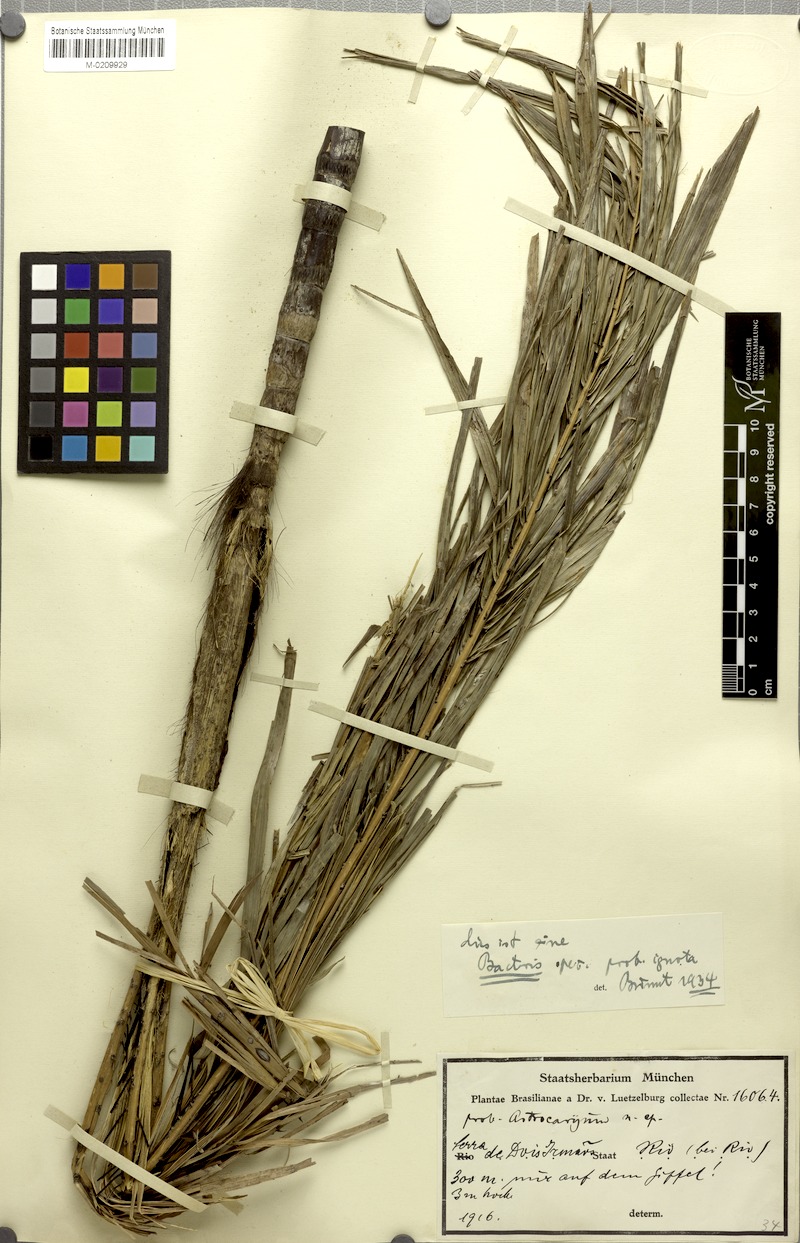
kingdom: Plantae
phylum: Tracheophyta
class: Liliopsida
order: Arecales
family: Arecaceae
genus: Bactris
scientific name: Bactris
